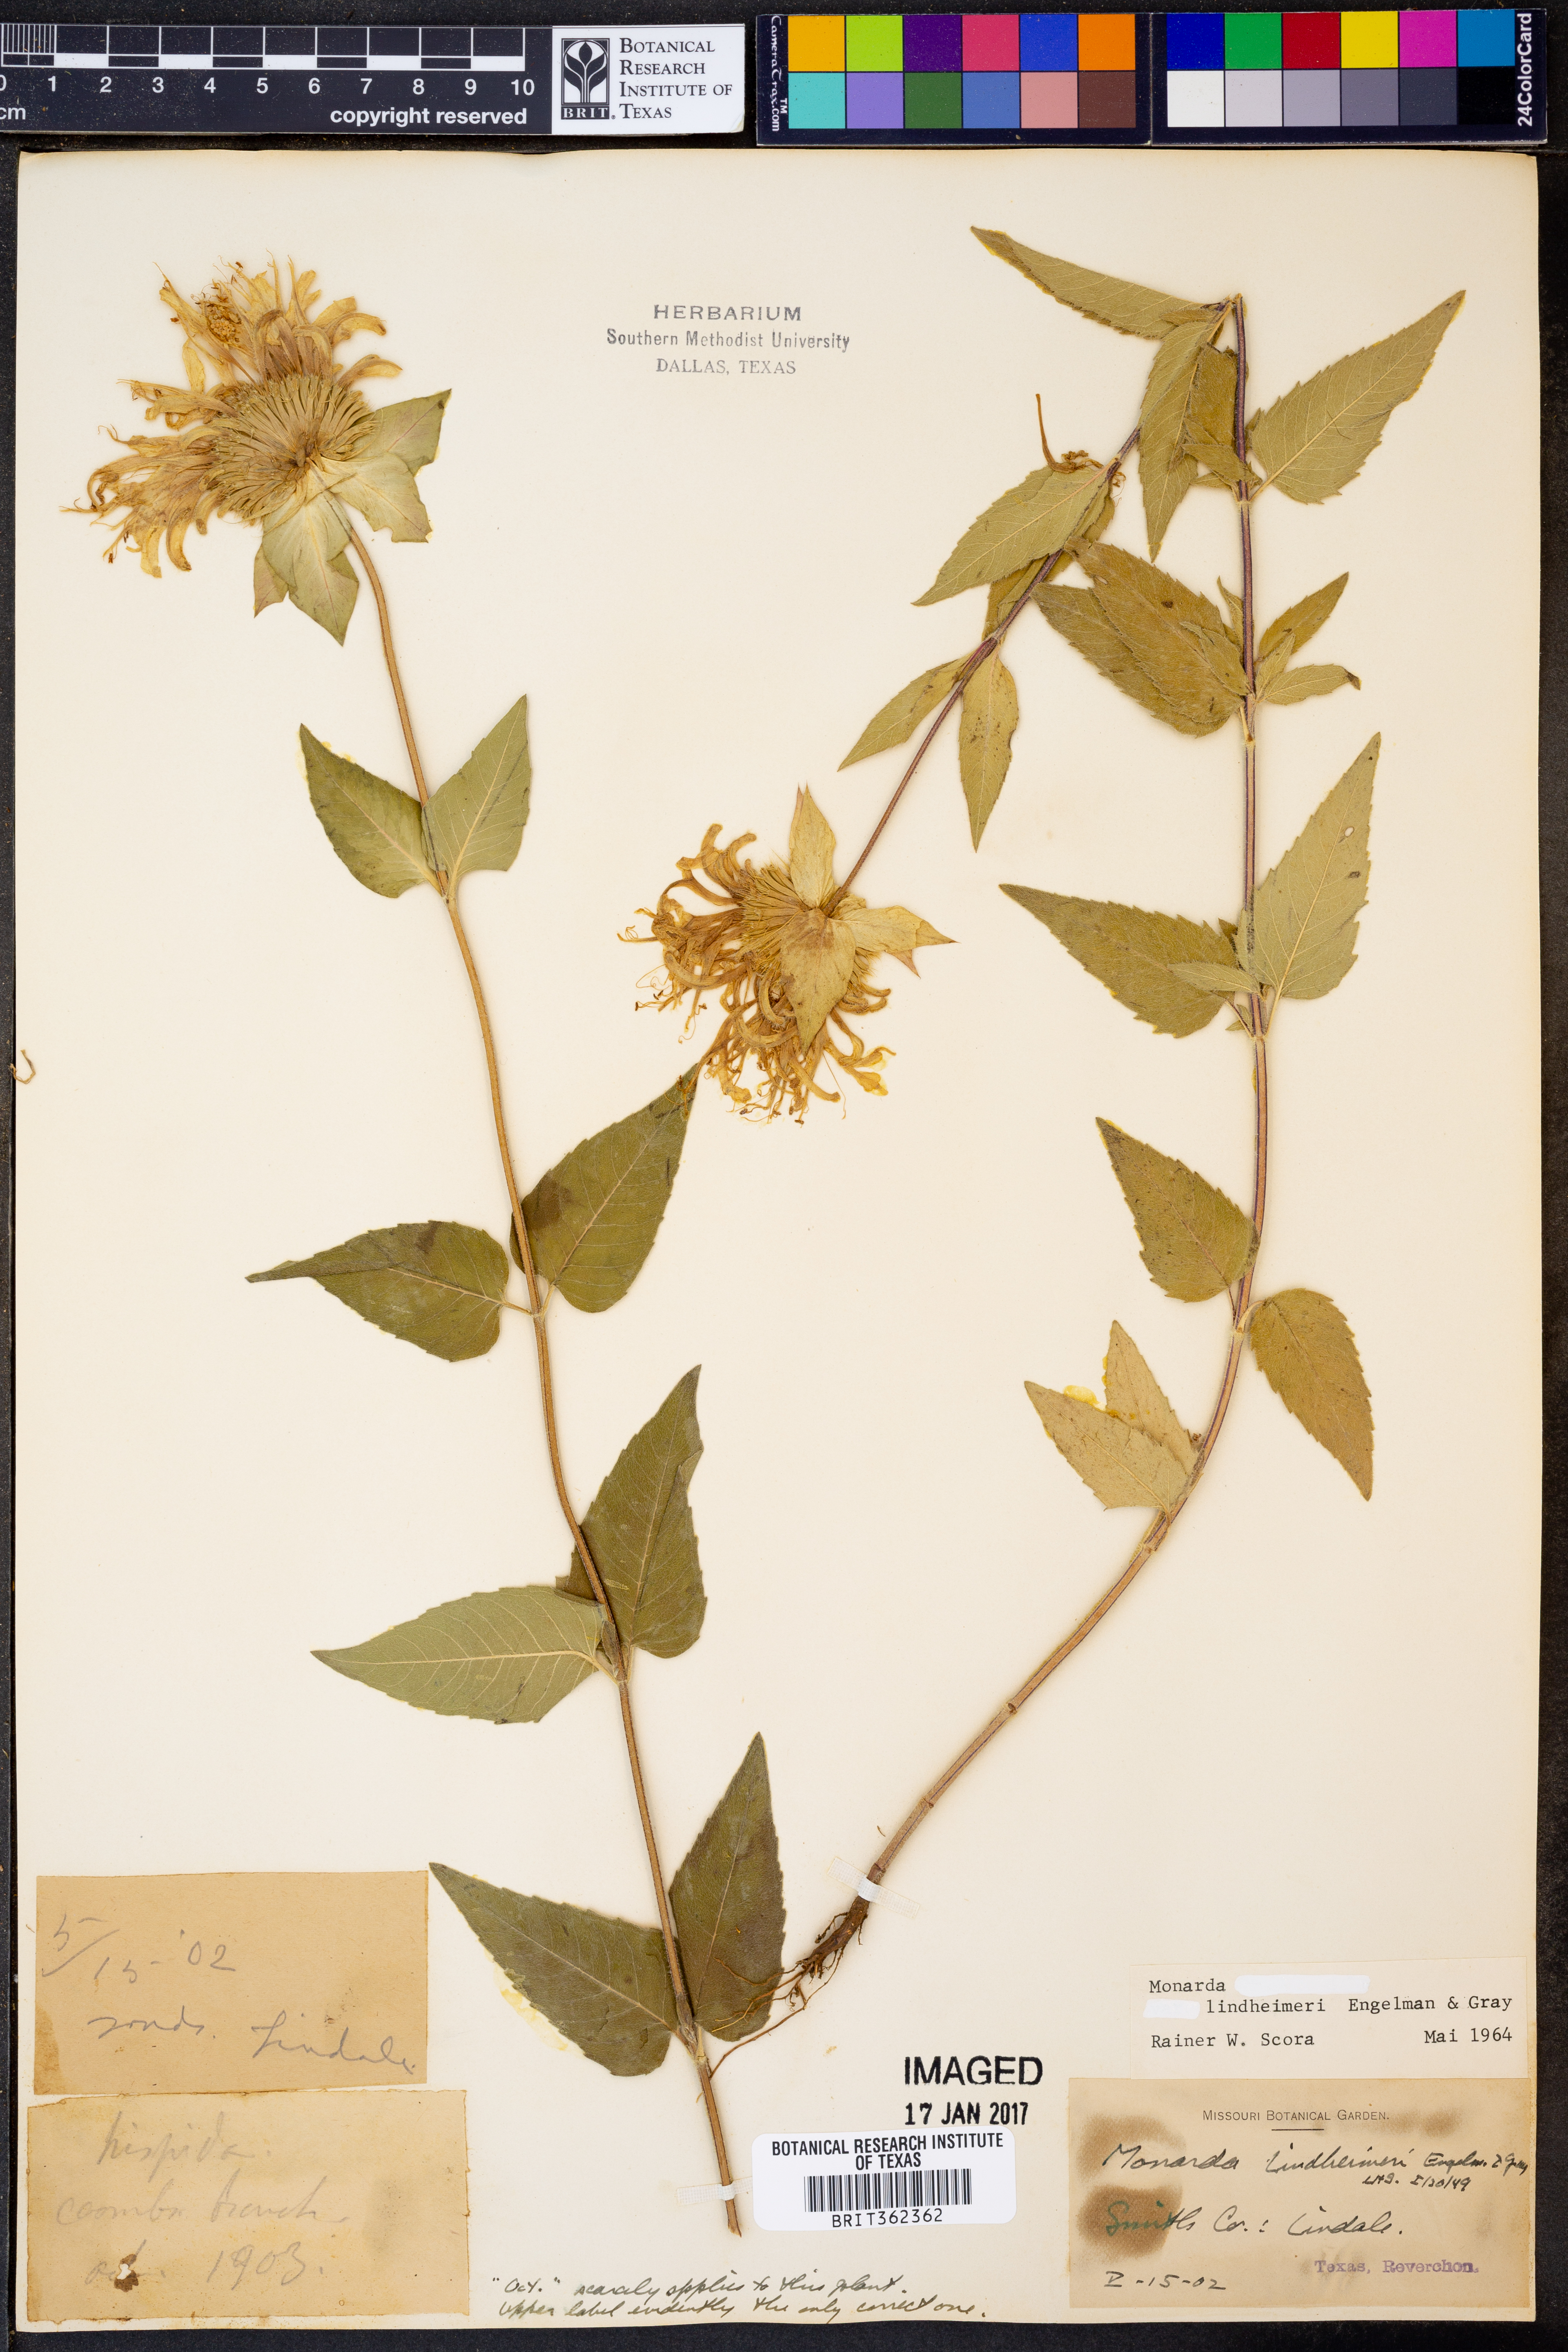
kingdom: Plantae
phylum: Tracheophyta
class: Magnoliopsida
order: Lamiales
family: Lamiaceae
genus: Monarda
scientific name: Monarda lindheimeri
